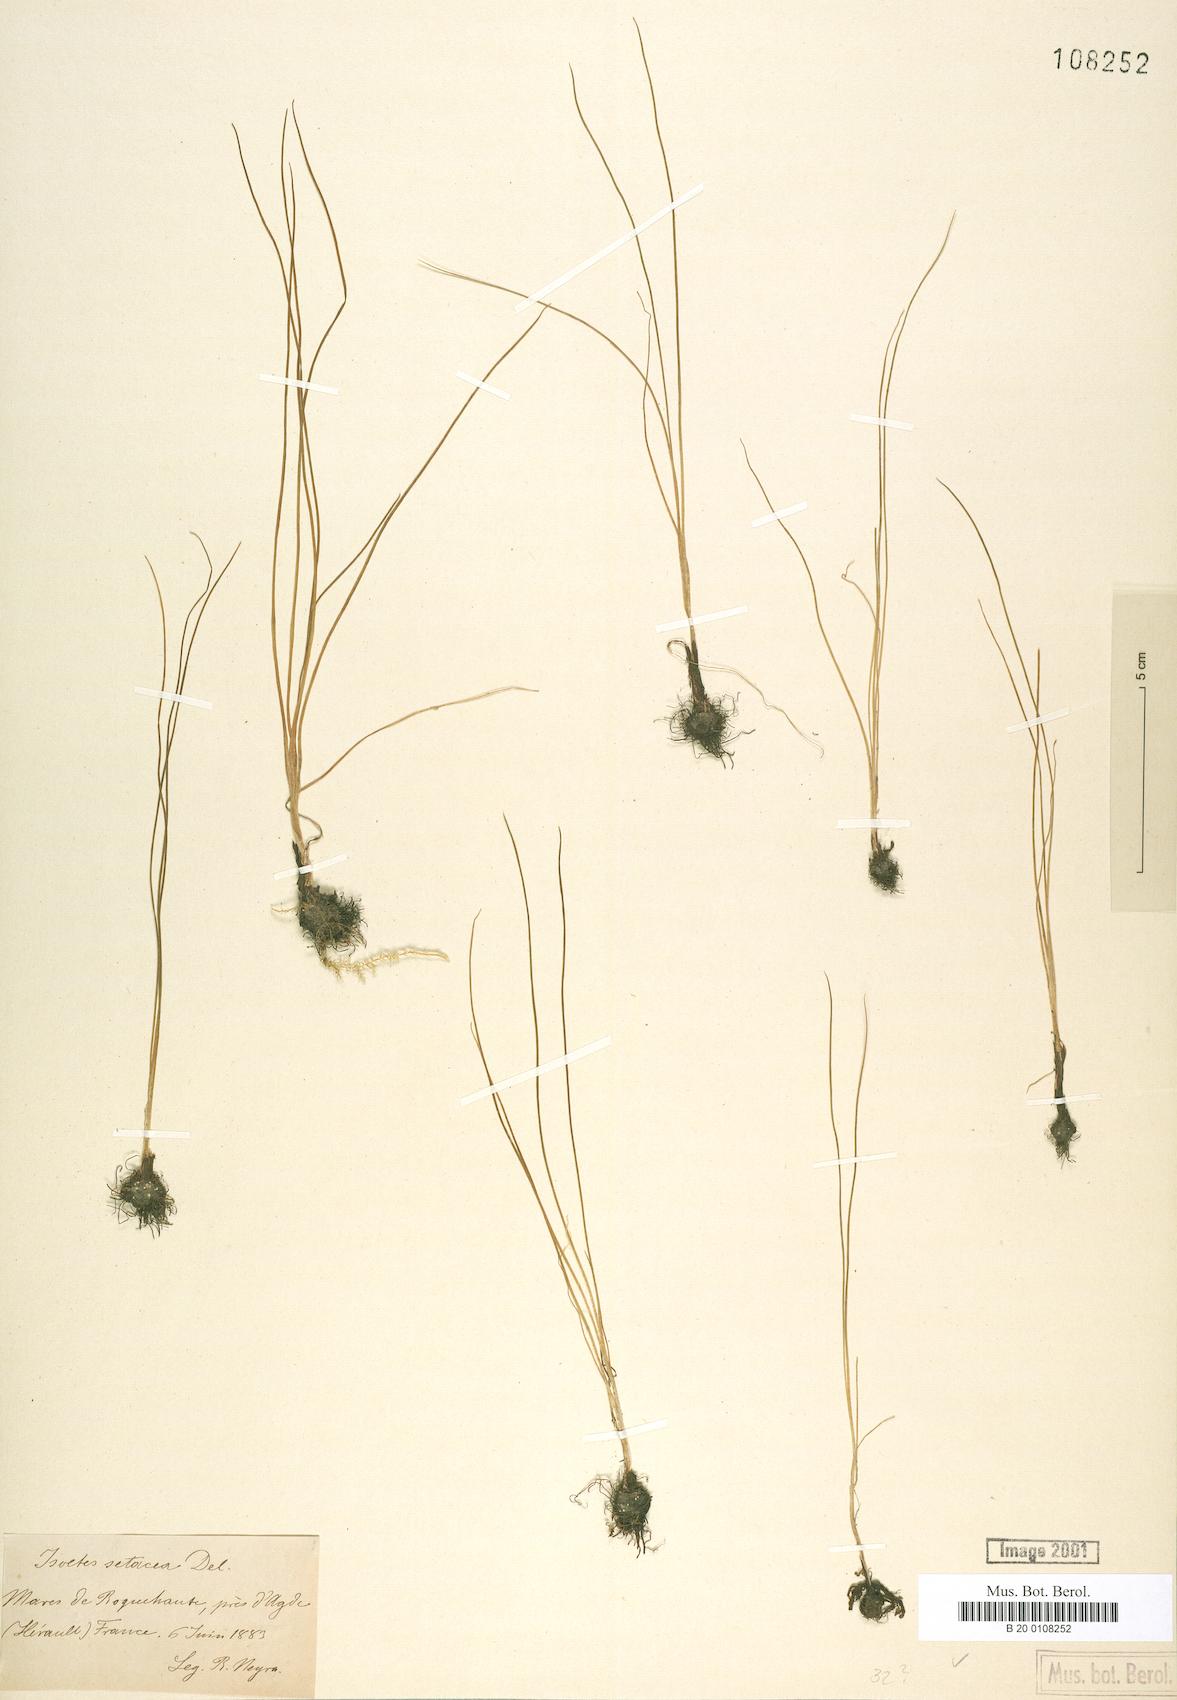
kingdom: Plantae
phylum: Tracheophyta
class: Lycopodiopsida
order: Isoetales
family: Isoetaceae
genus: Isoetes
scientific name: Isoetes lacustris
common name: Common quillwort
